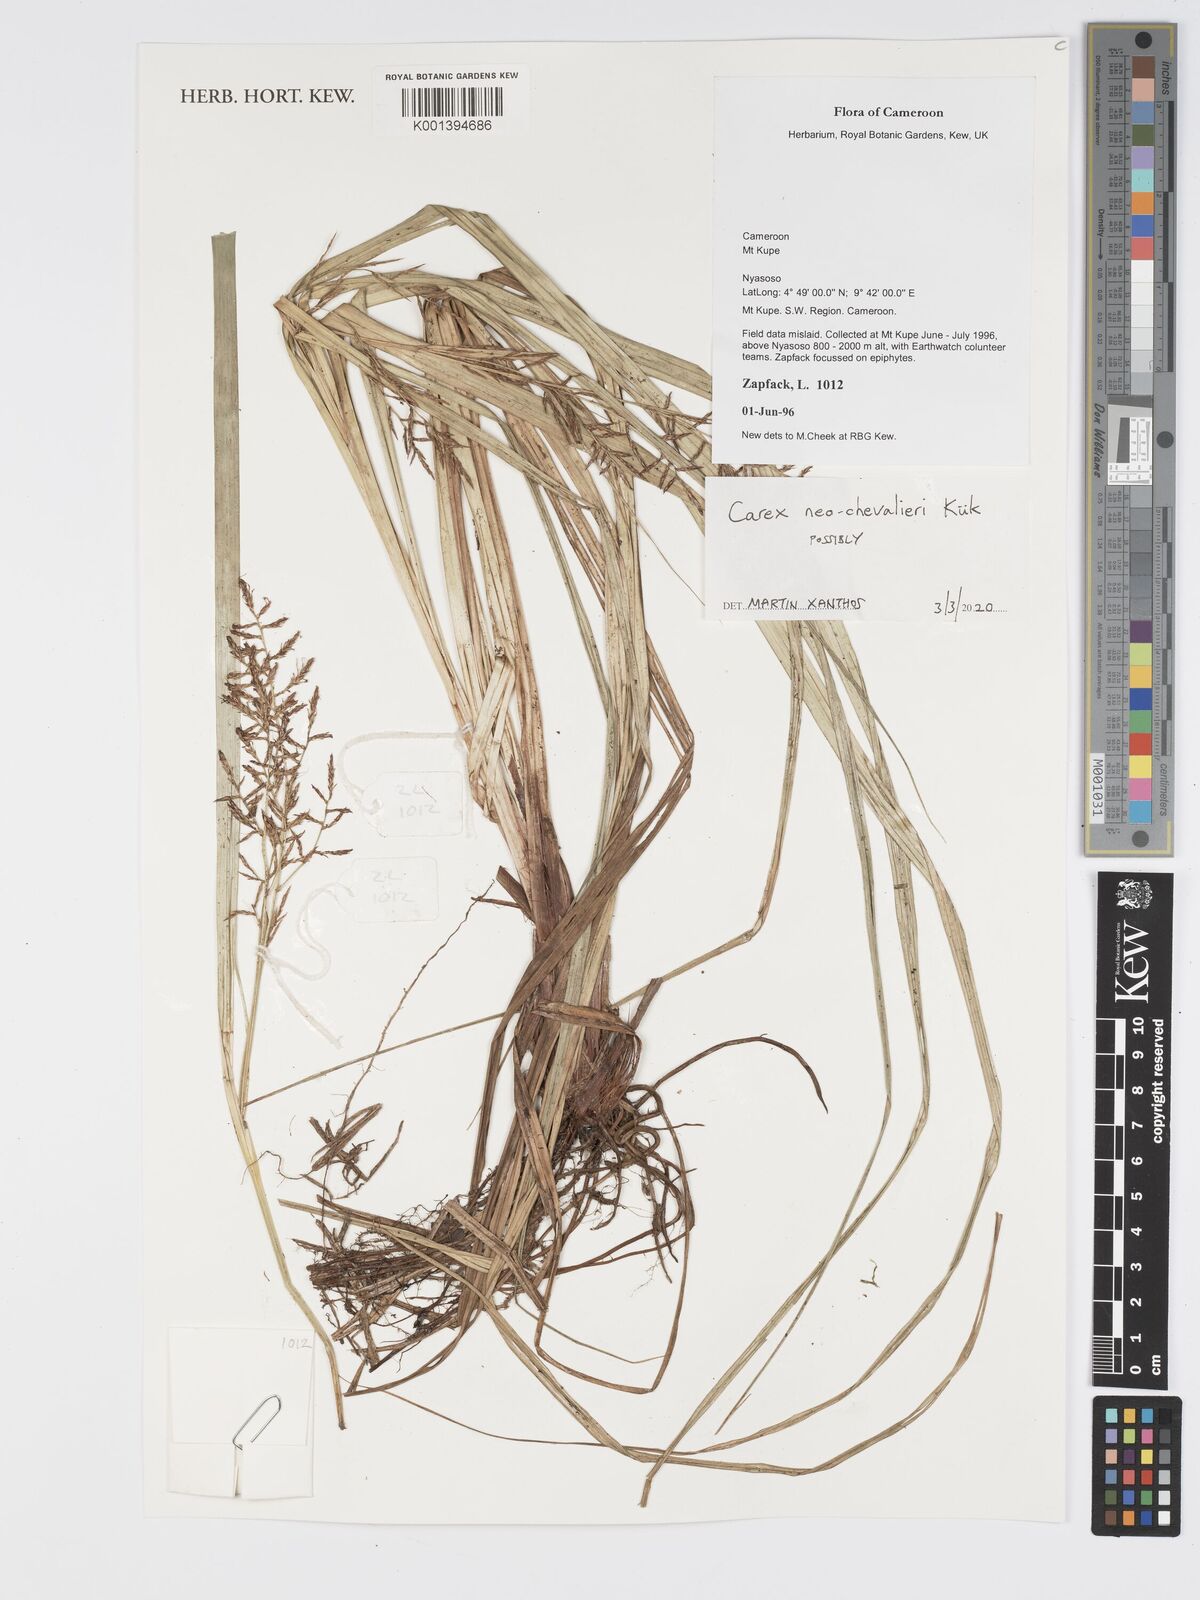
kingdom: Plantae
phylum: Tracheophyta
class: Liliopsida
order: Poales
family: Cyperaceae
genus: Carex
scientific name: Carex neochevalieri
